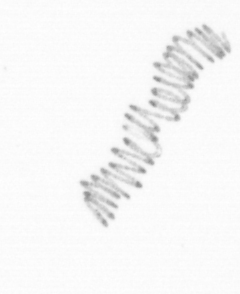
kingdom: Chromista
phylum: Ochrophyta
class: Bacillariophyceae
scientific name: Bacillariophyceae
